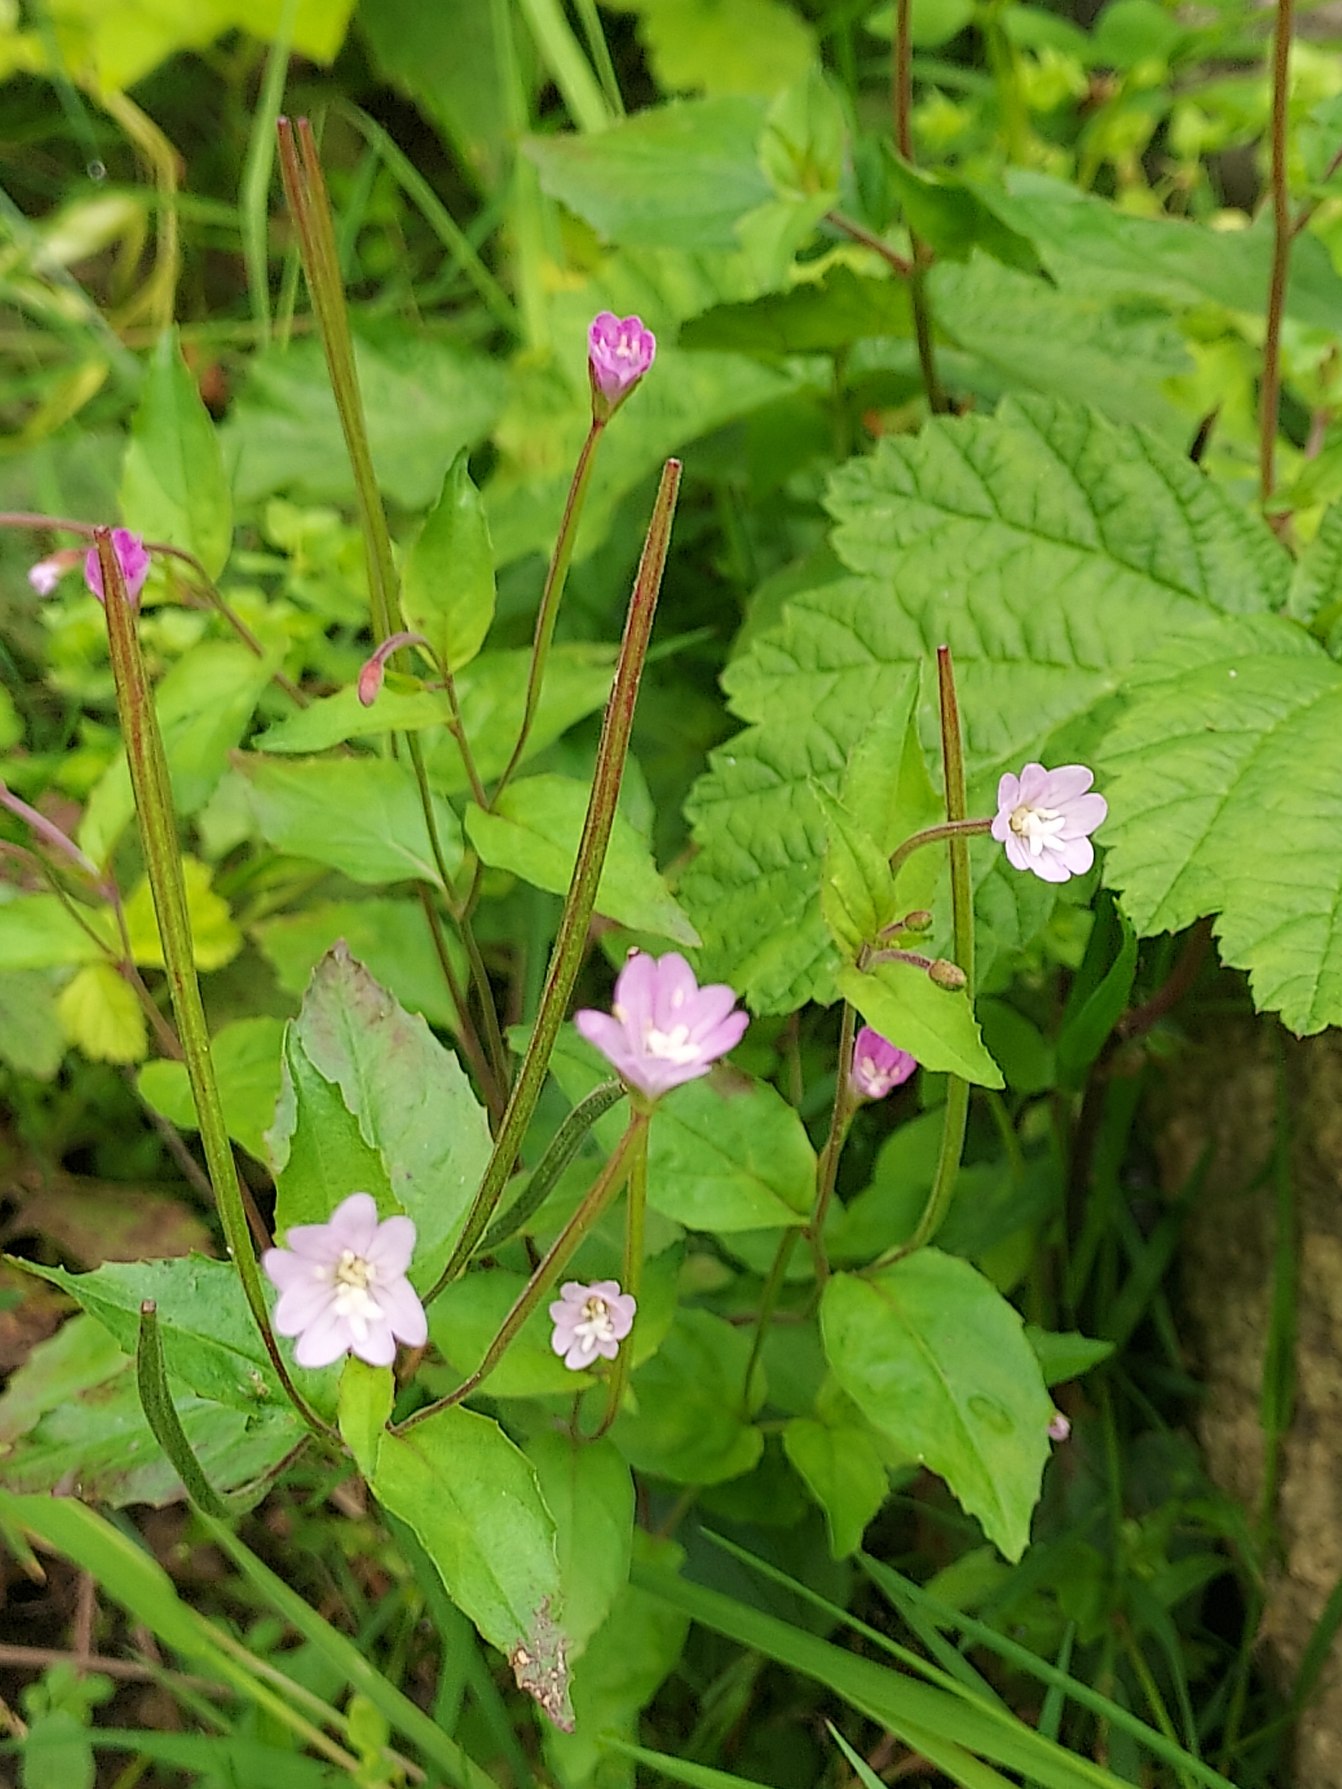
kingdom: Plantae
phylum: Tracheophyta
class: Magnoliopsida
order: Myrtales
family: Onagraceae
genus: Epilobium
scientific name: Epilobium montanum
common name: Glat dueurt
